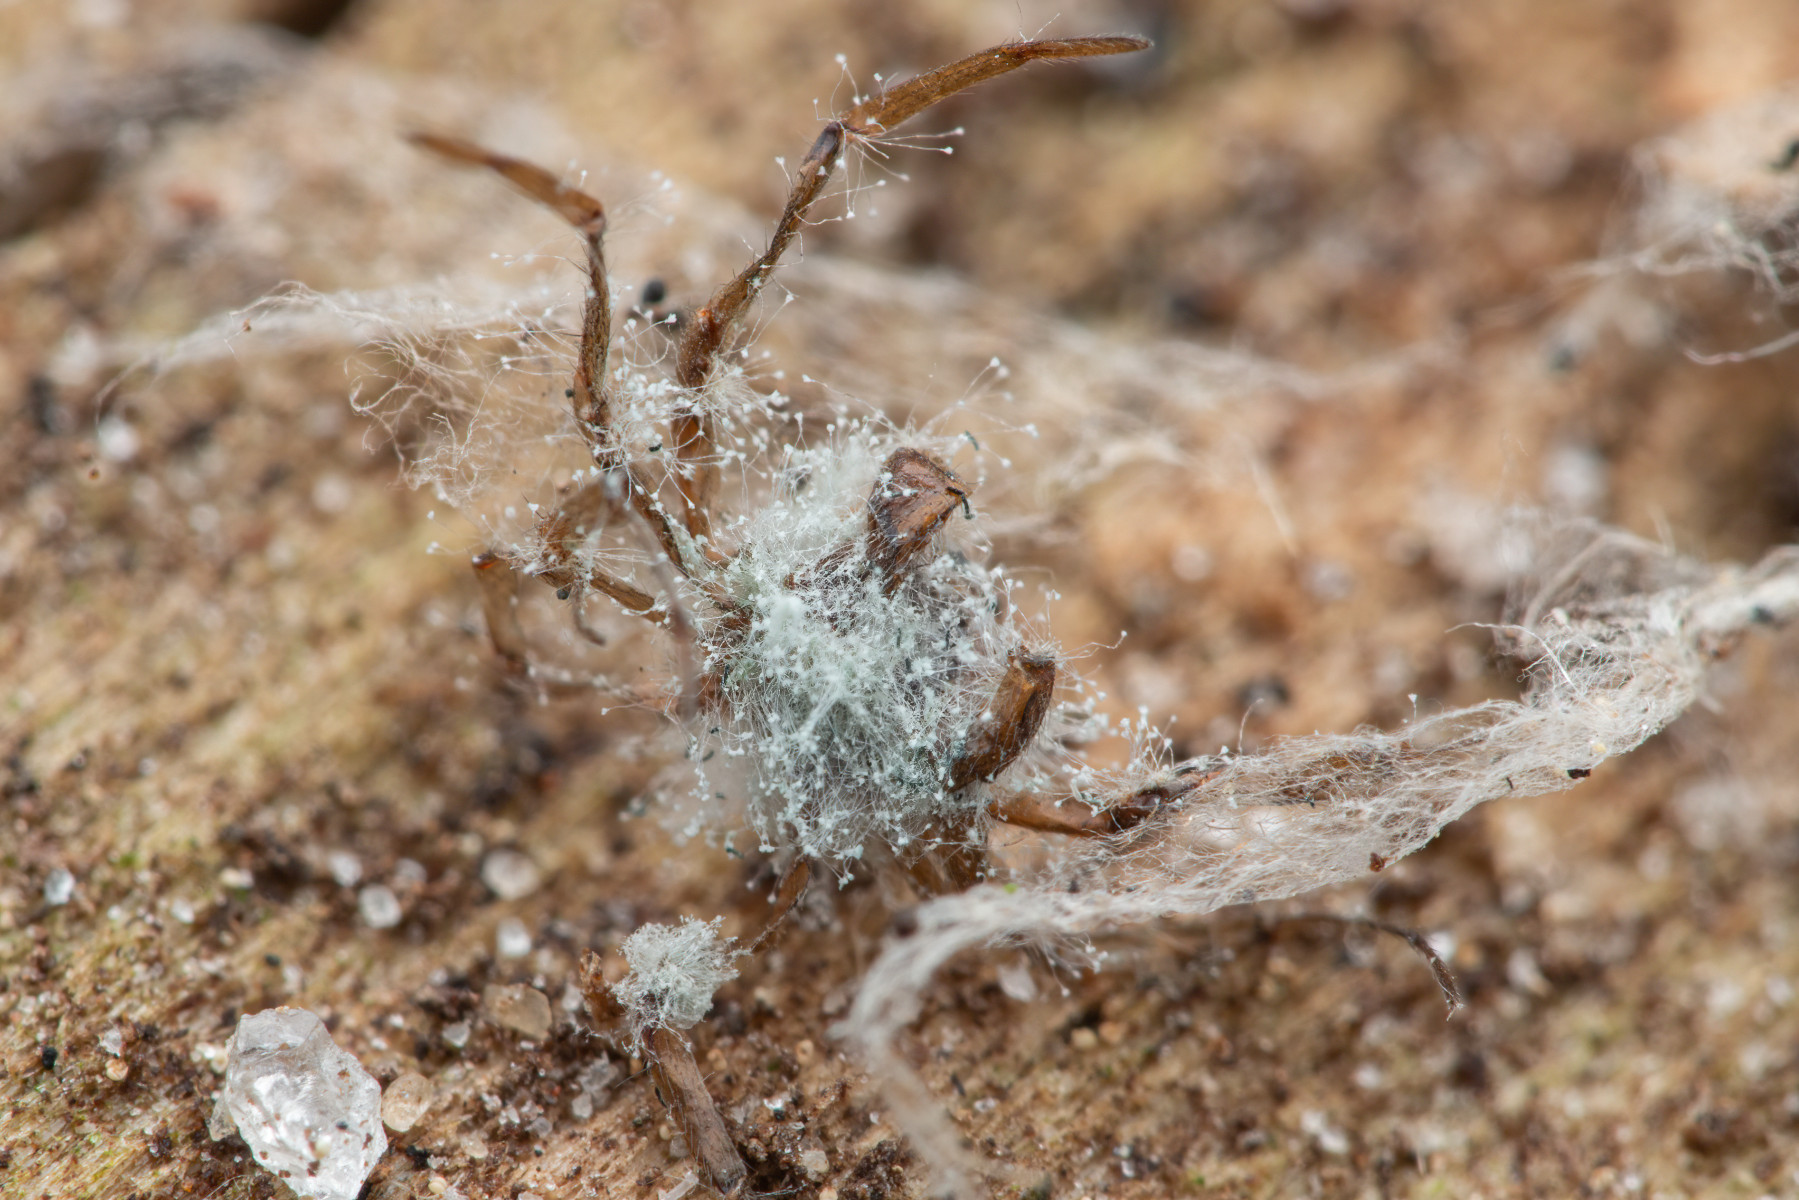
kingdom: Fungi
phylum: Ascomycota
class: Eurotiomycetes
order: Eurotiales
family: Aspergillaceae
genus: Penicillium
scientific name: Penicillium
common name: penselskimmel
